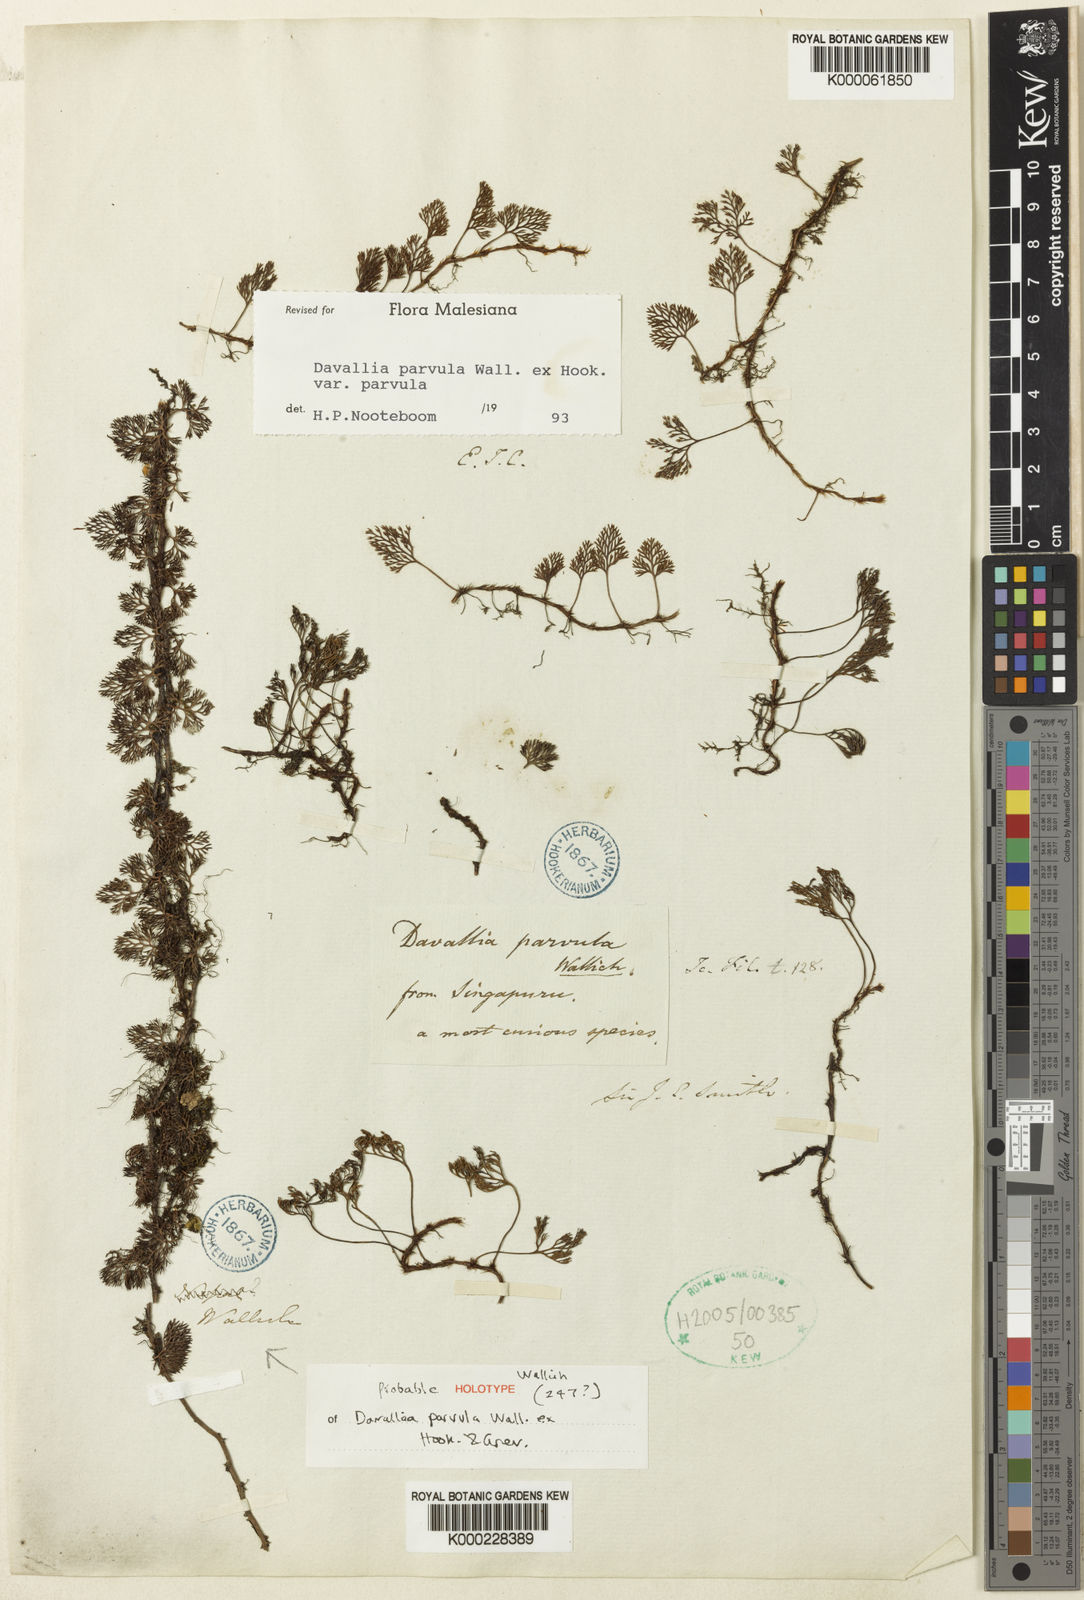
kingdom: Plantae
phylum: Tracheophyta
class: Polypodiopsida
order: Polypodiales
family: Davalliaceae
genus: Davallia
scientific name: Davallia parvula
